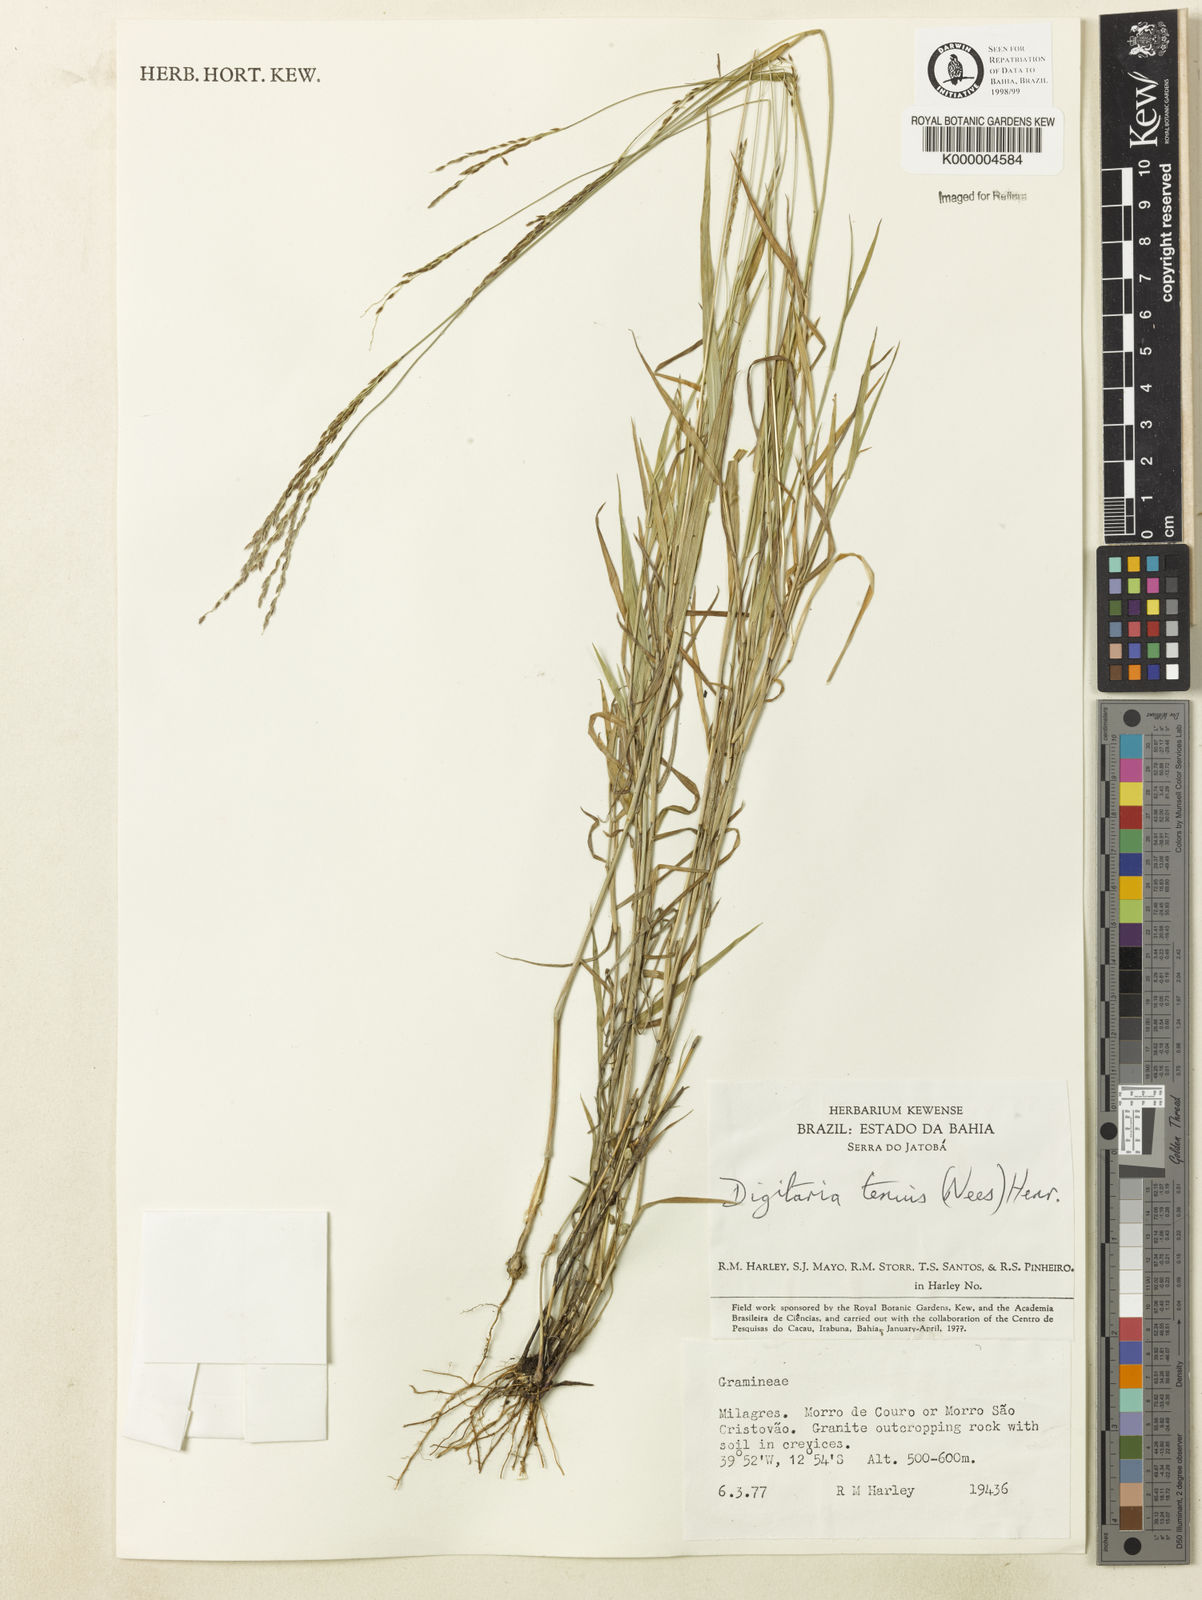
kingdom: Plantae
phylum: Tracheophyta
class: Liliopsida
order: Poales
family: Poaceae
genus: Digitaria
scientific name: Digitaria tenuis
